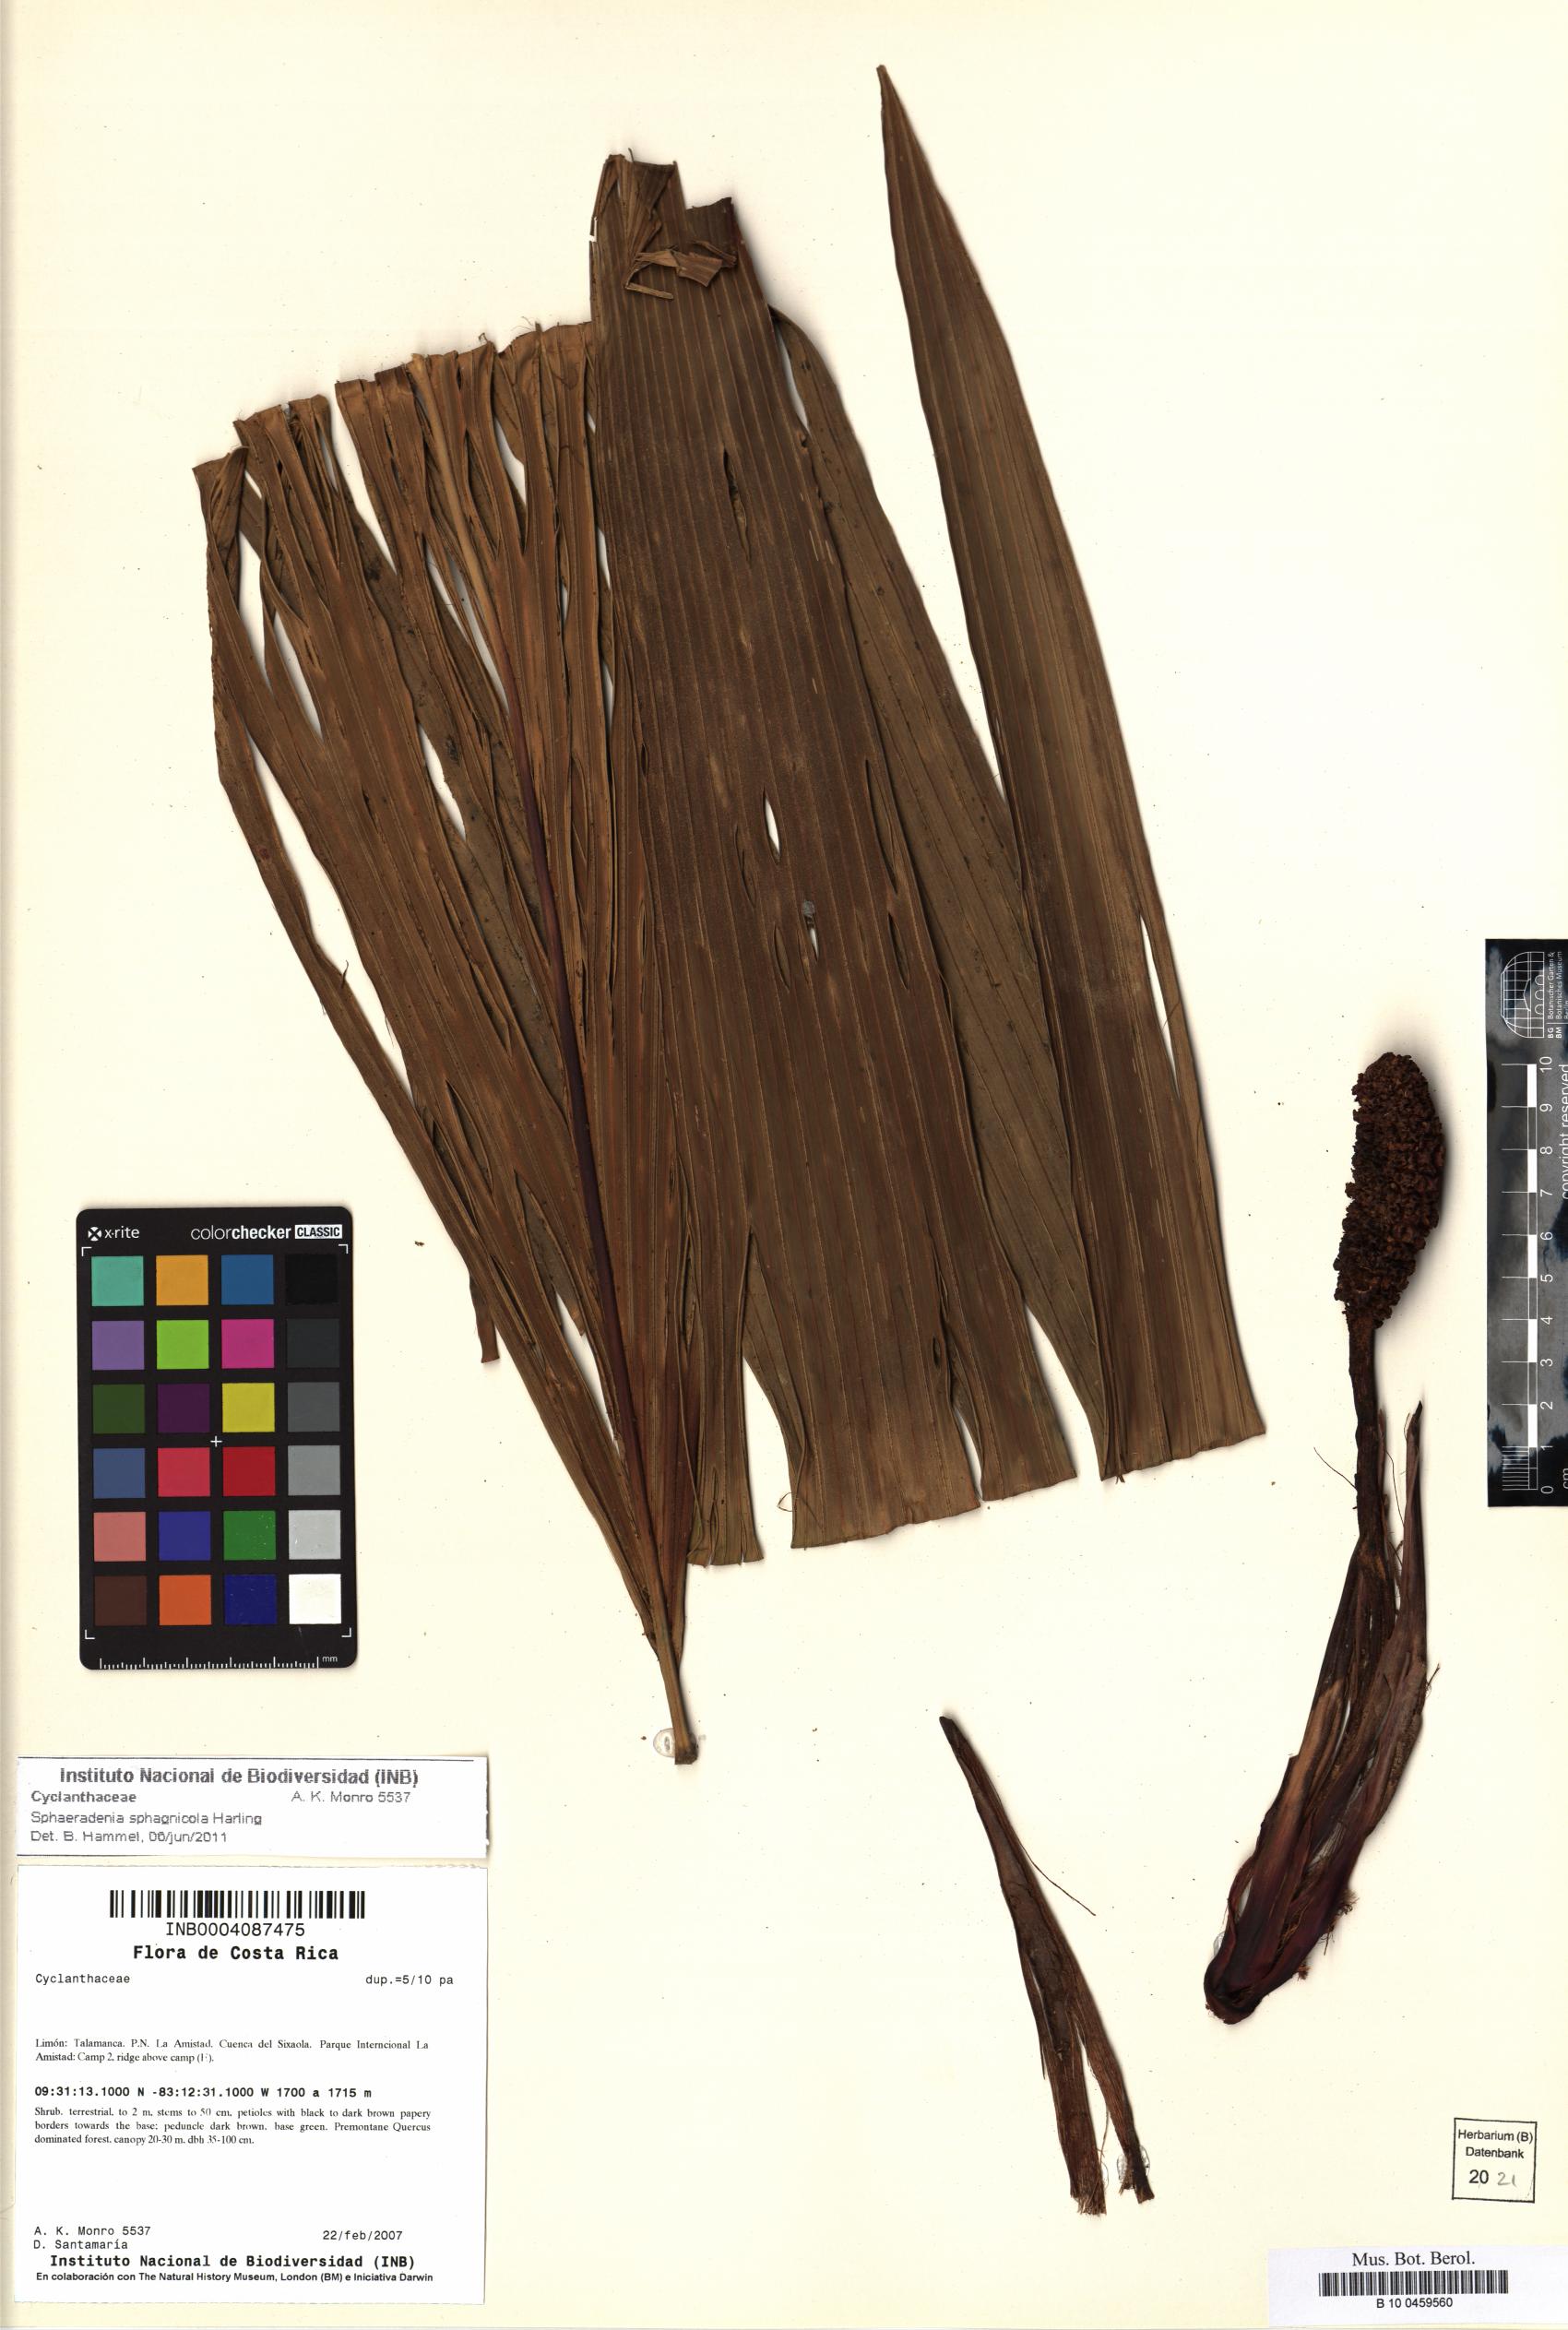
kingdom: Plantae
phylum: Tracheophyta
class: Liliopsida
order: Pandanales
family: Cyclanthaceae
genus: Sphaeradenia
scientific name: Sphaeradenia sphagnicola
